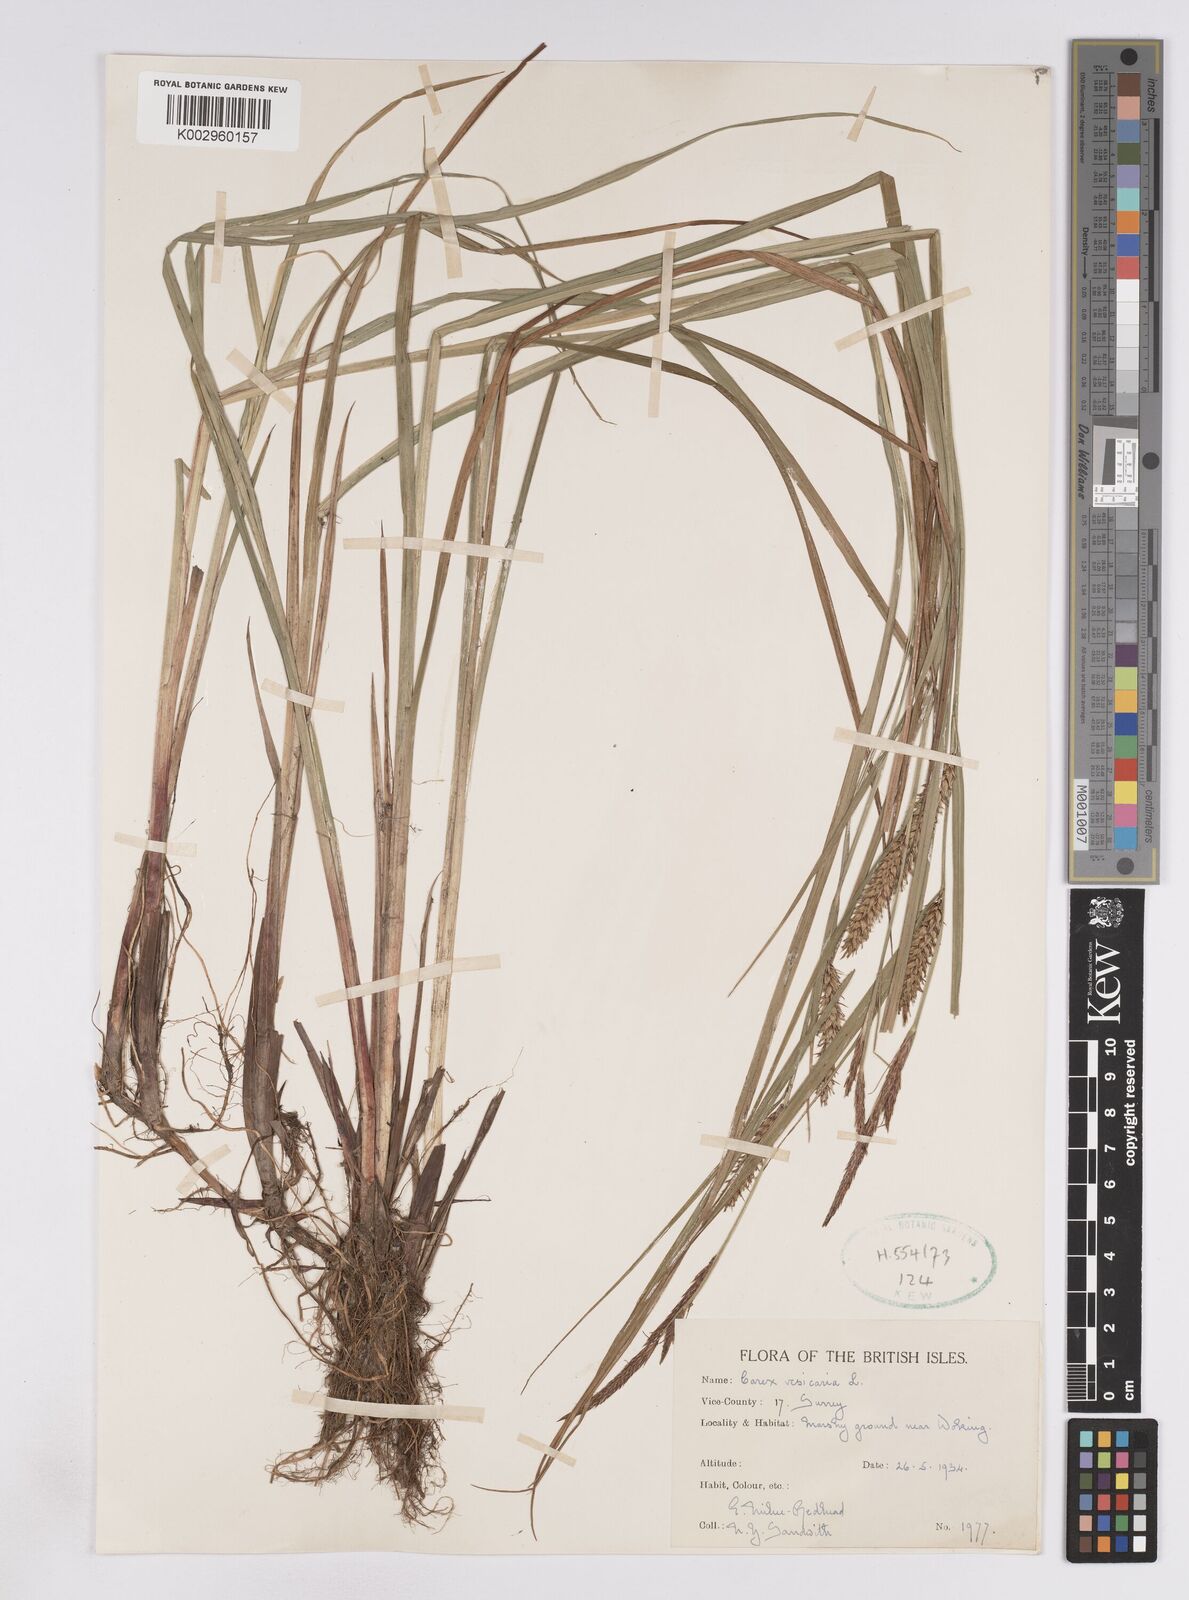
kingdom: Plantae
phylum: Tracheophyta
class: Liliopsida
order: Poales
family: Cyperaceae
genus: Carex
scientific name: Carex vesicaria
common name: Bladder-sedge
